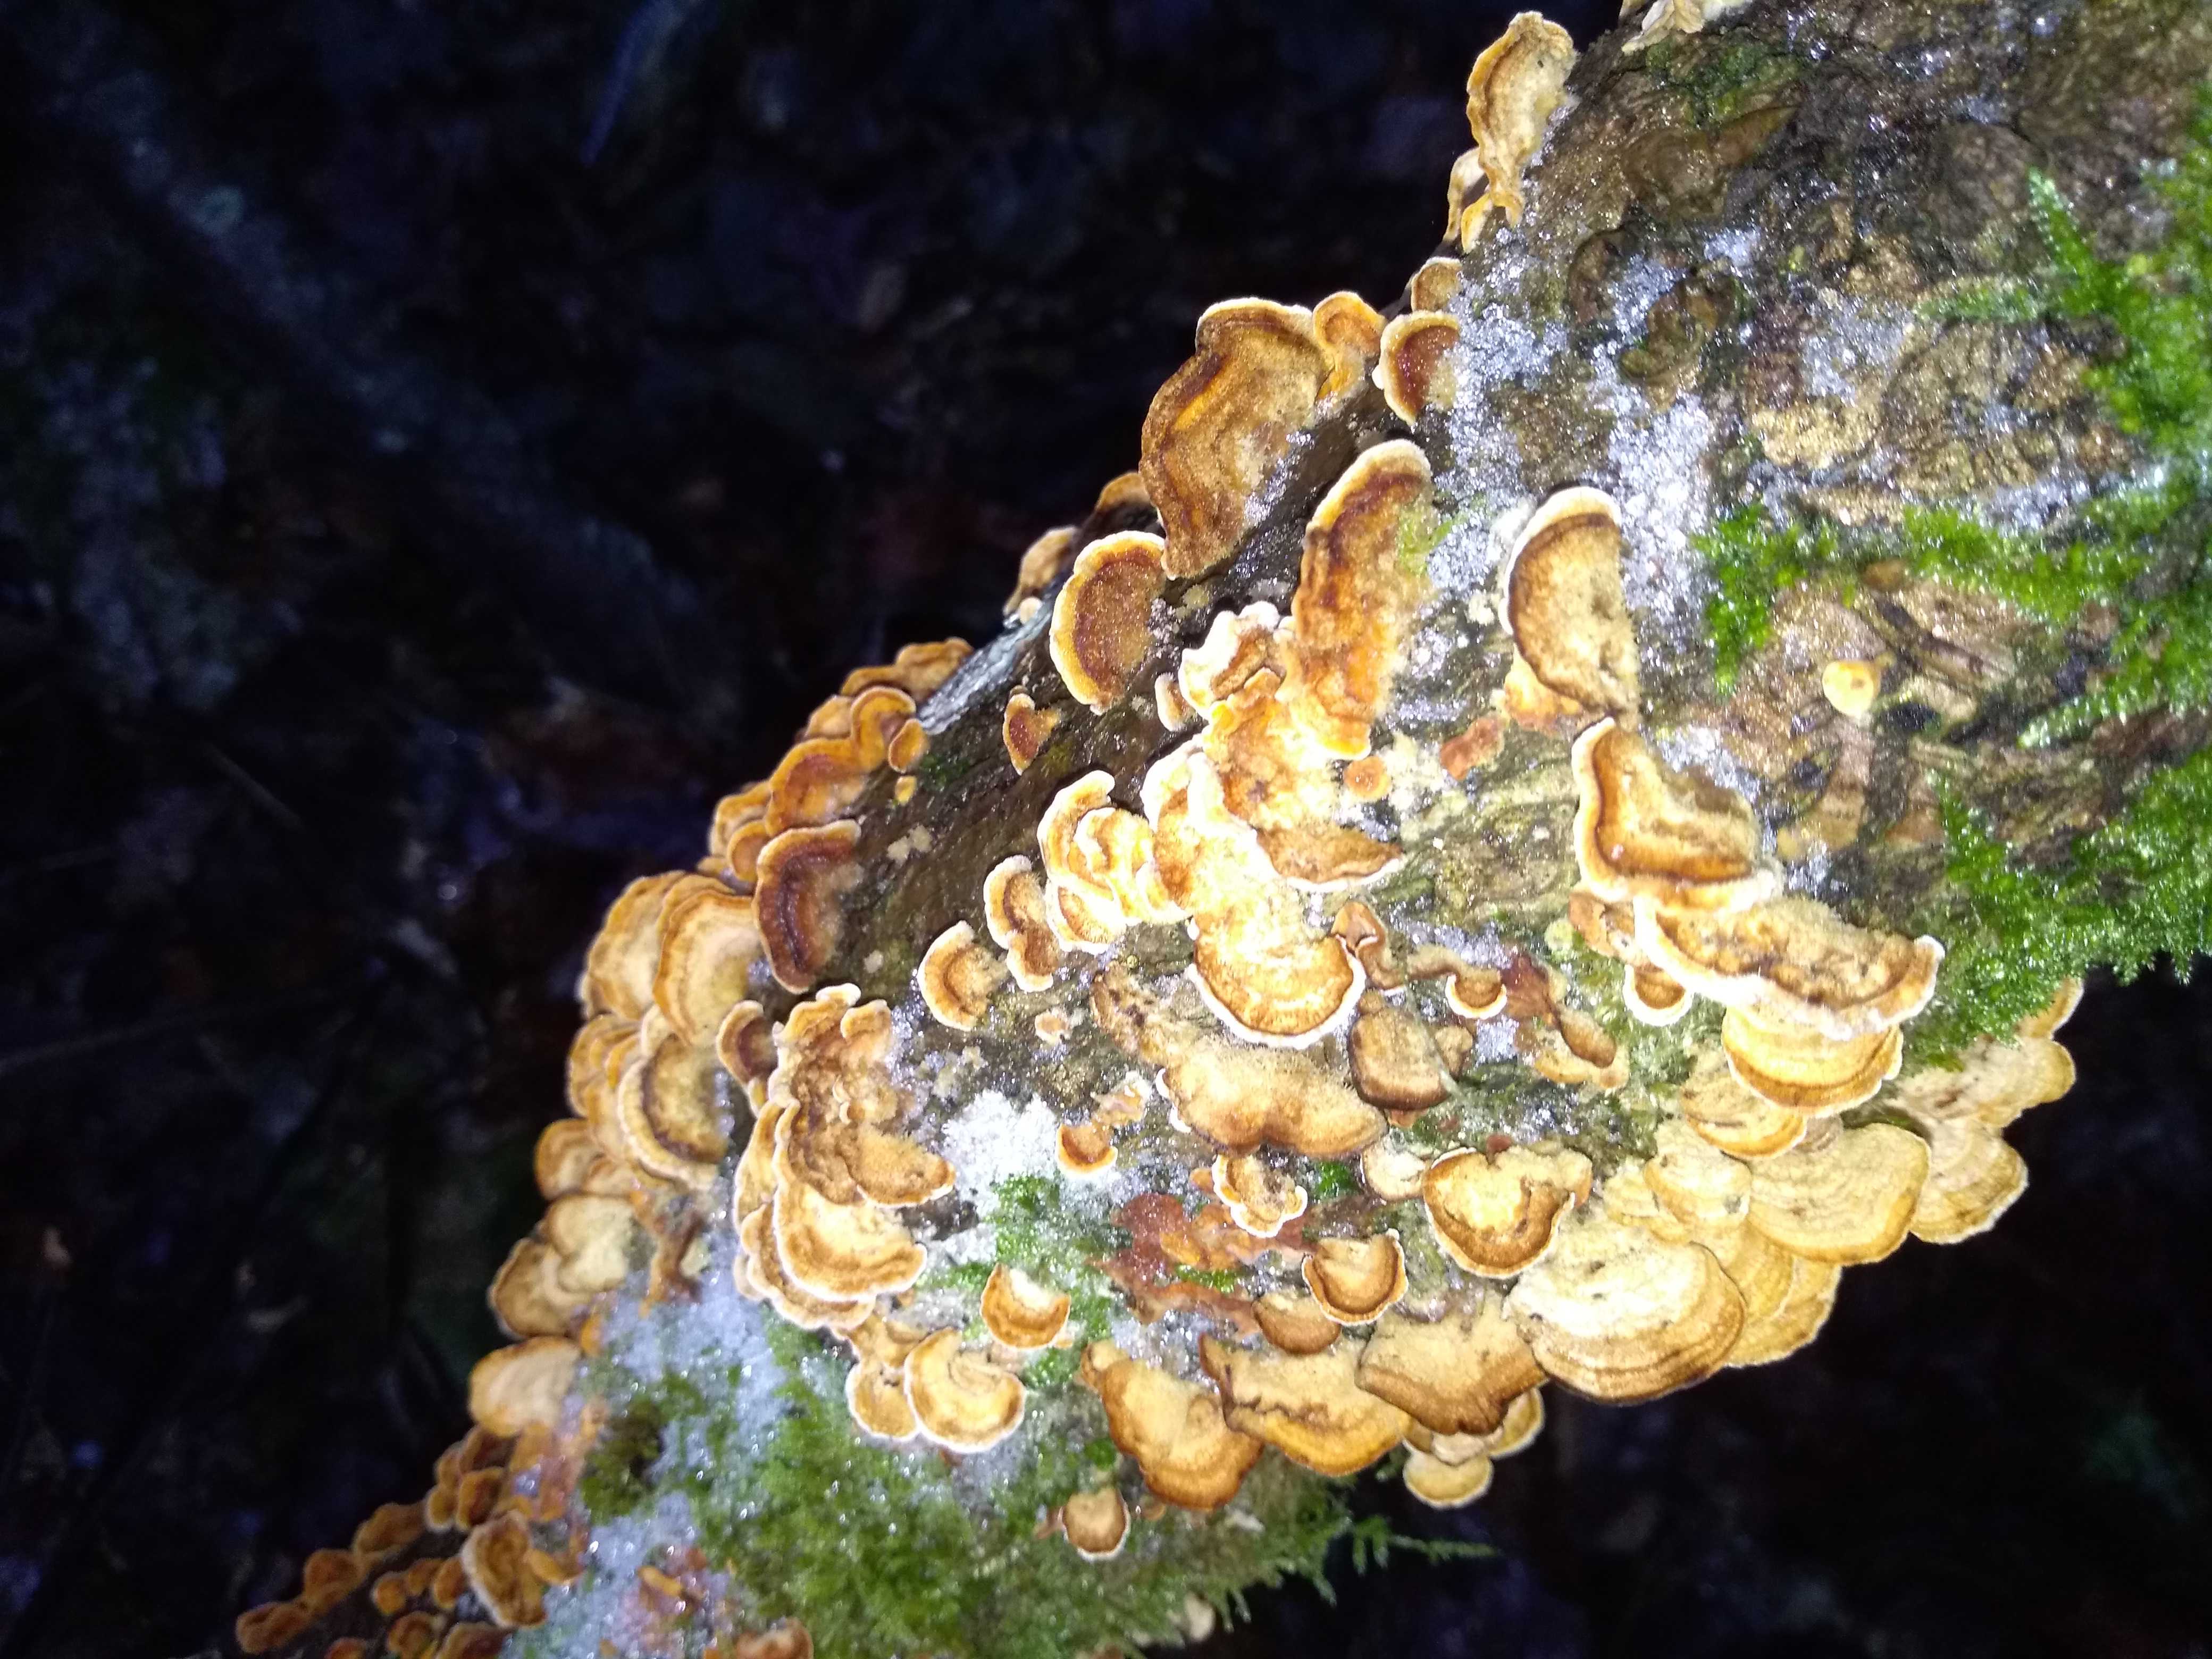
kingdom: Fungi
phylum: Basidiomycota
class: Agaricomycetes
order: Russulales
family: Stereaceae
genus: Stereum
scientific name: Stereum hirsutum
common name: håret lædersvamp
